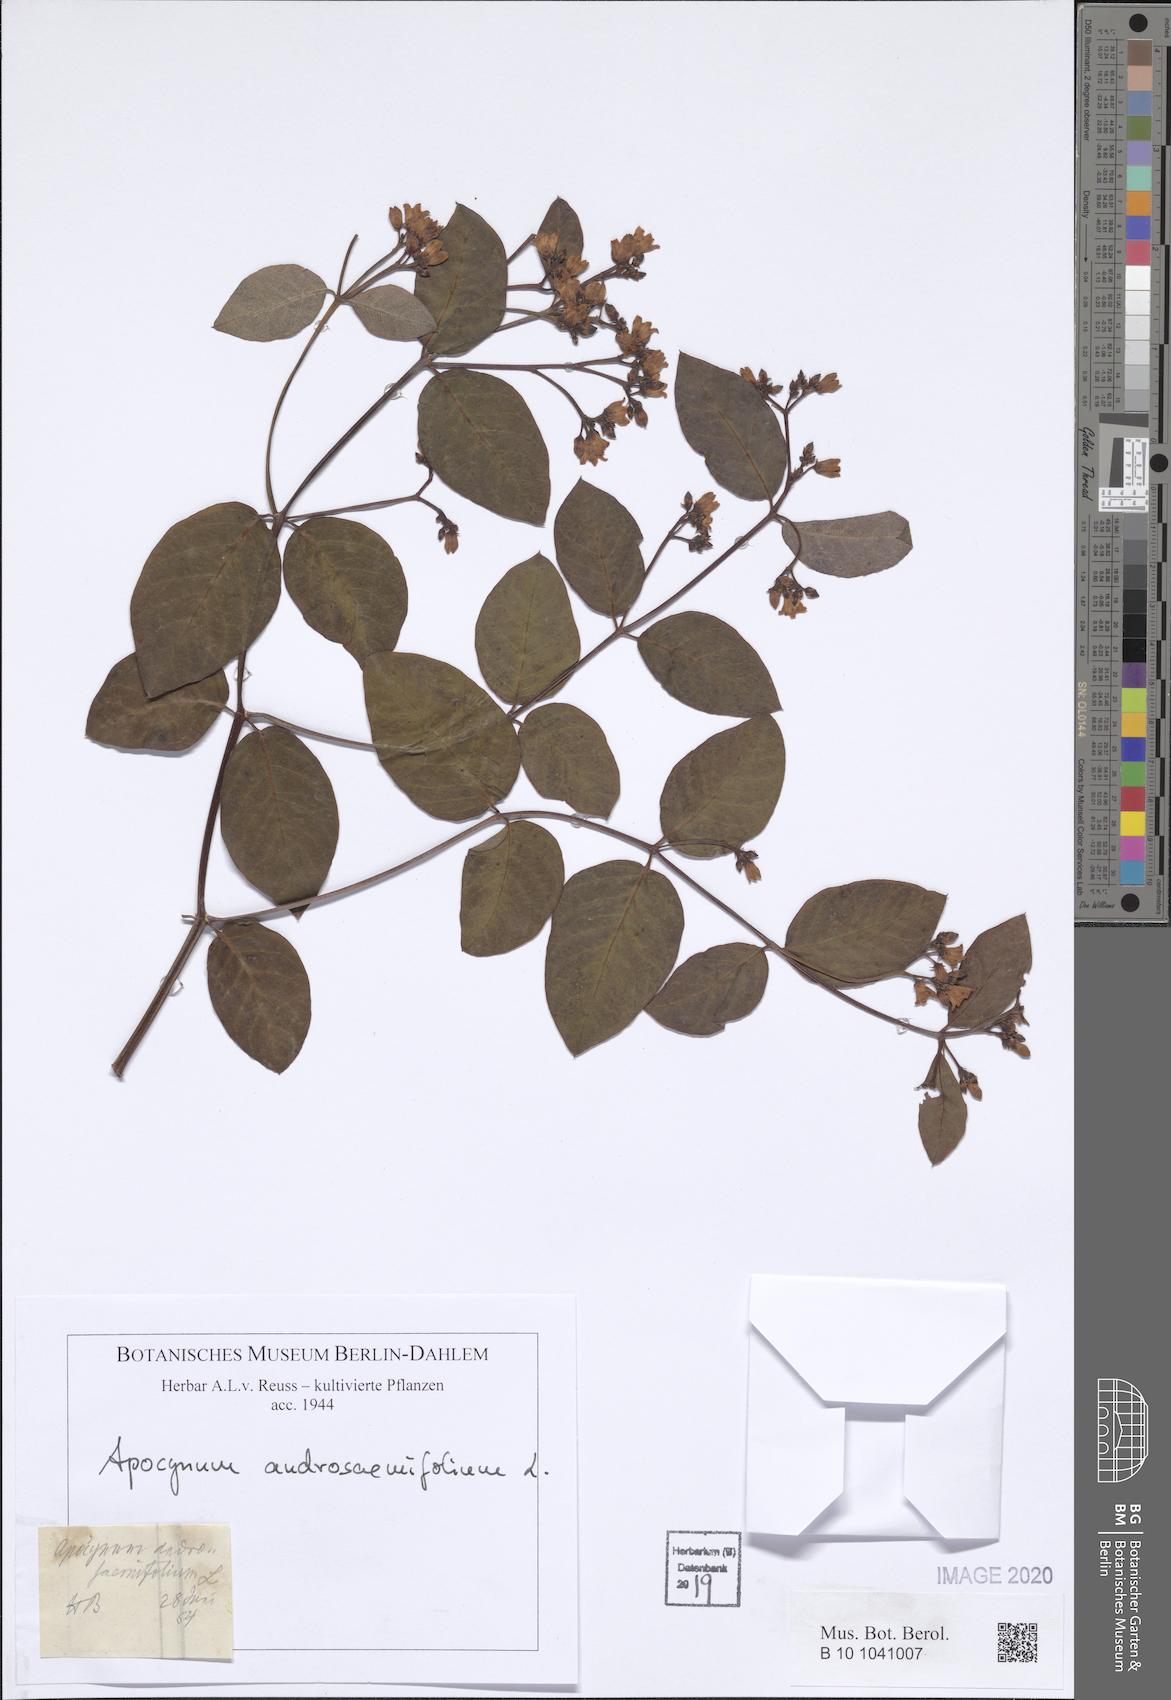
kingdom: Plantae
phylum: Tracheophyta
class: Magnoliopsida
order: Gentianales
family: Apocynaceae
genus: Apocynum
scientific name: Apocynum androsaemifolium
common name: Spreading dogbane
